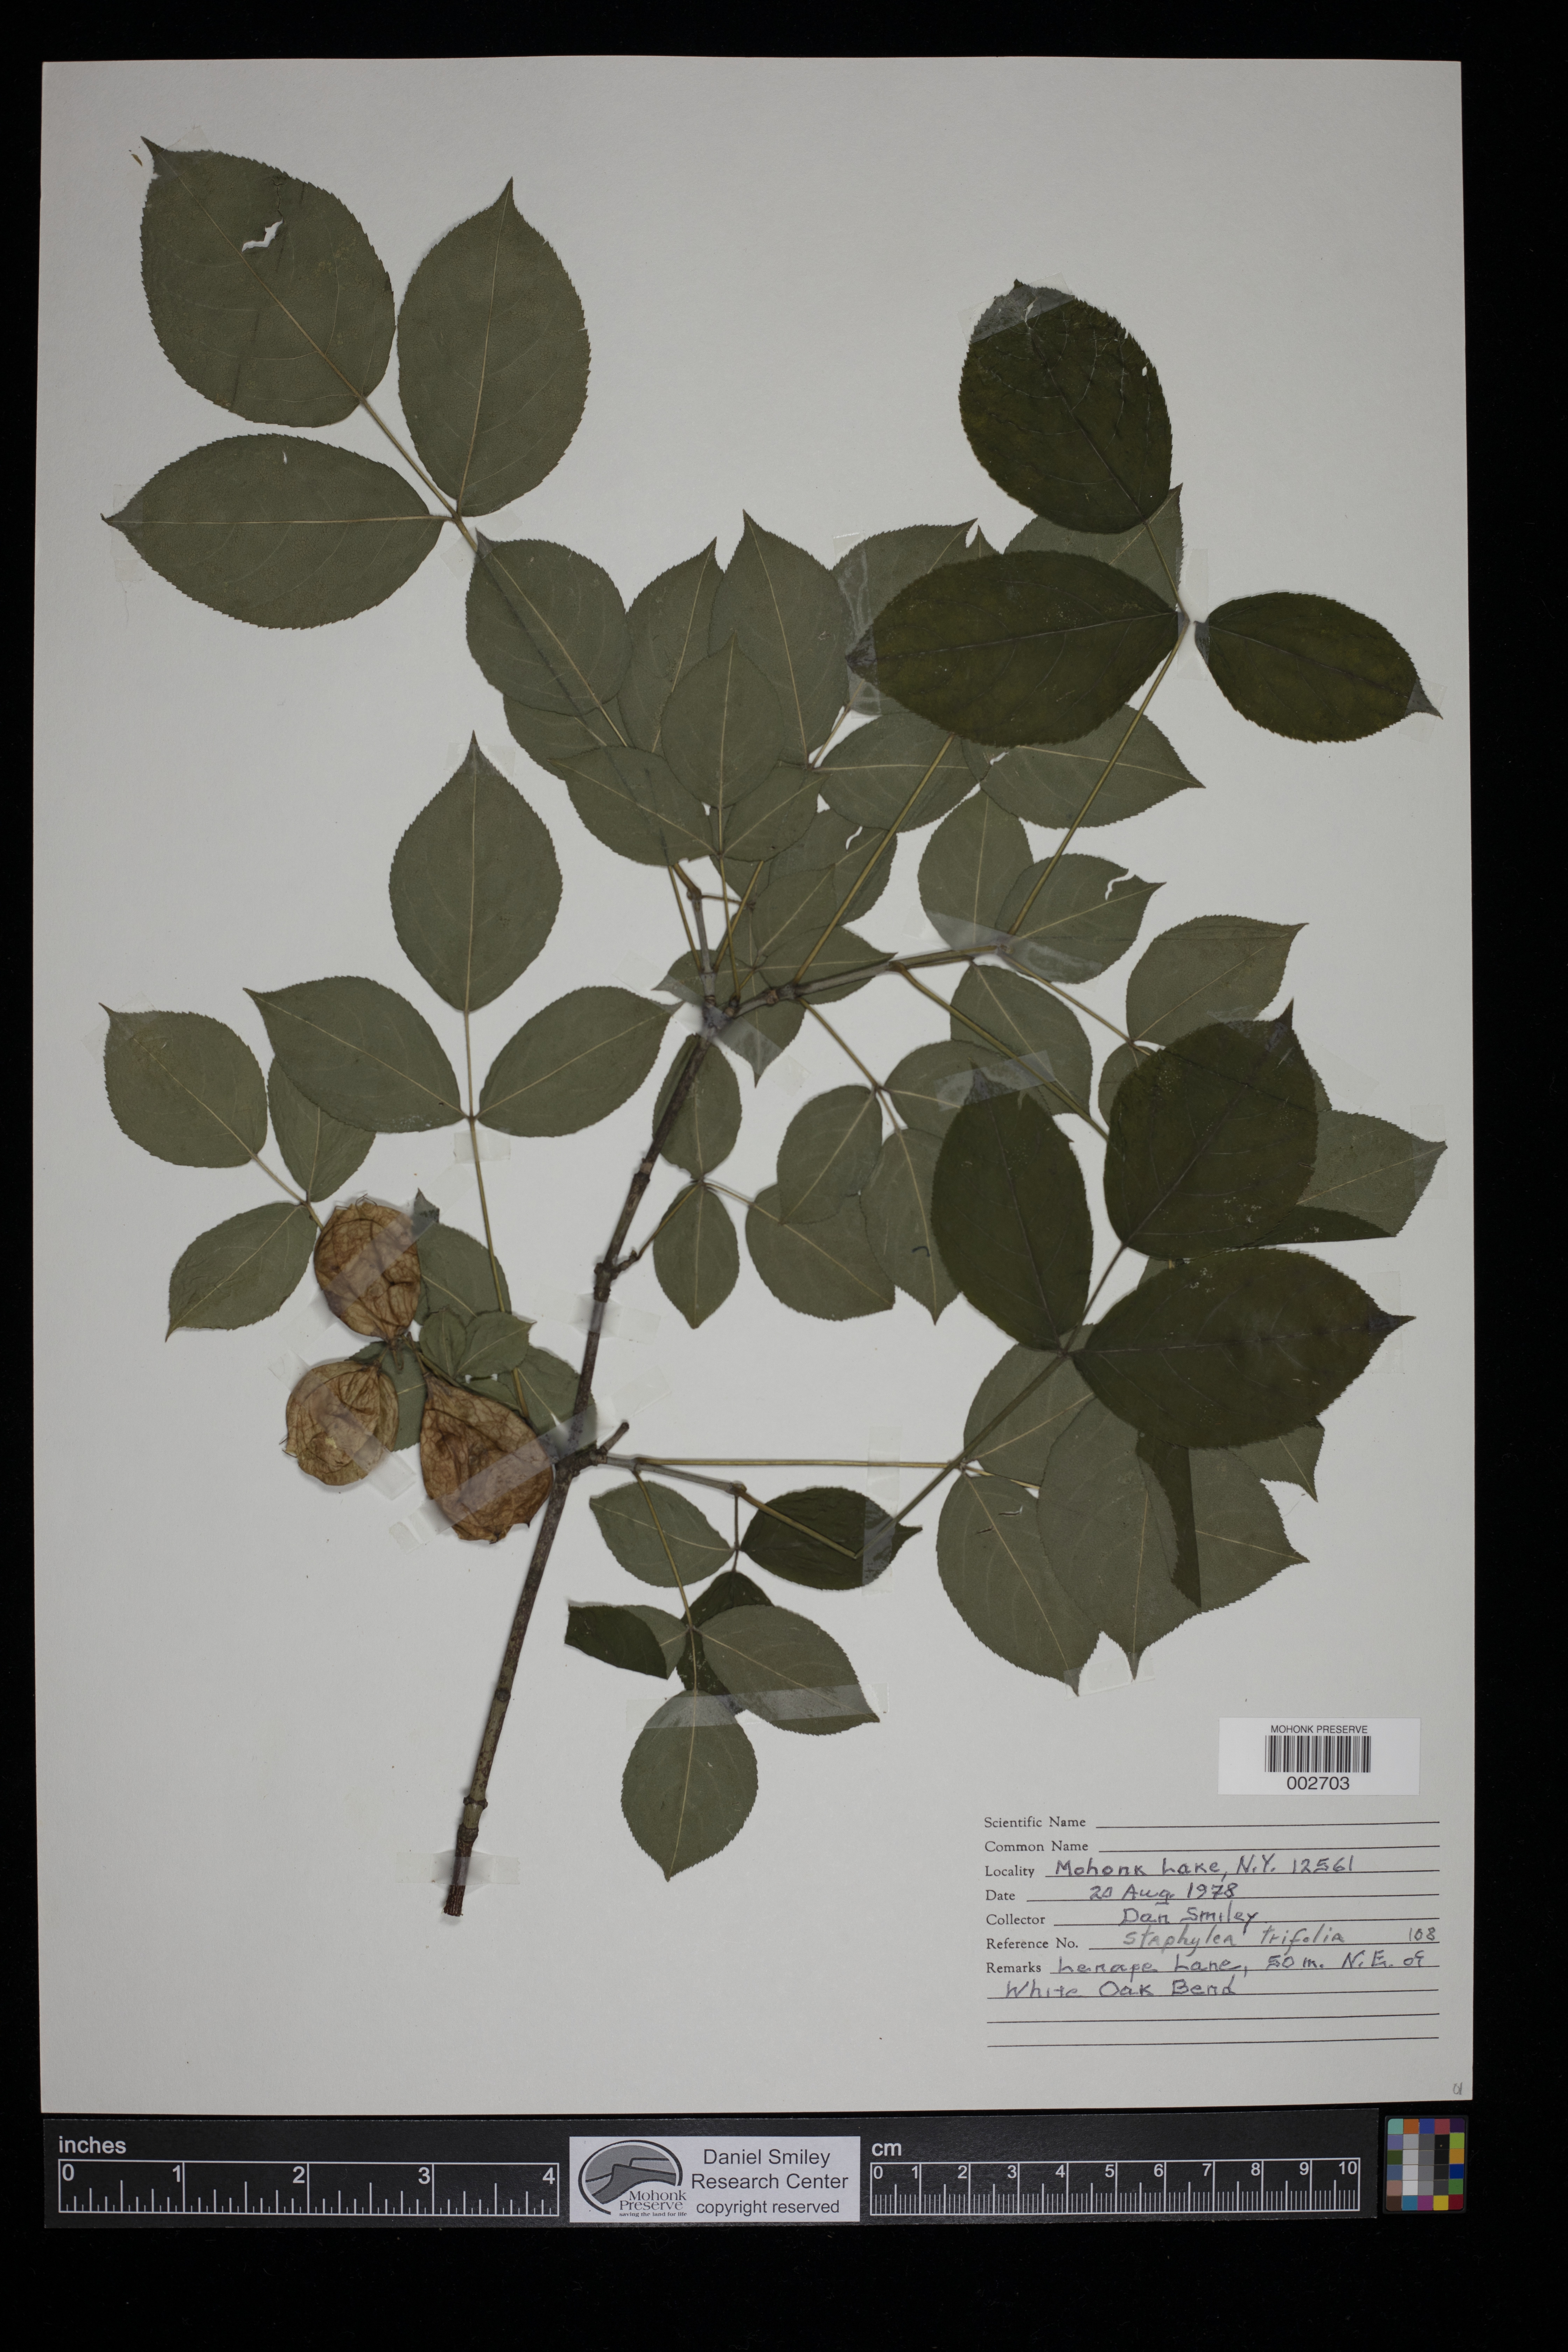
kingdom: Plantae
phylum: Tracheophyta
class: Magnoliopsida
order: Crossosomatales
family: Staphyleaceae
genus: Staphylea
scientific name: Staphylea trifolia
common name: American bladdernut
